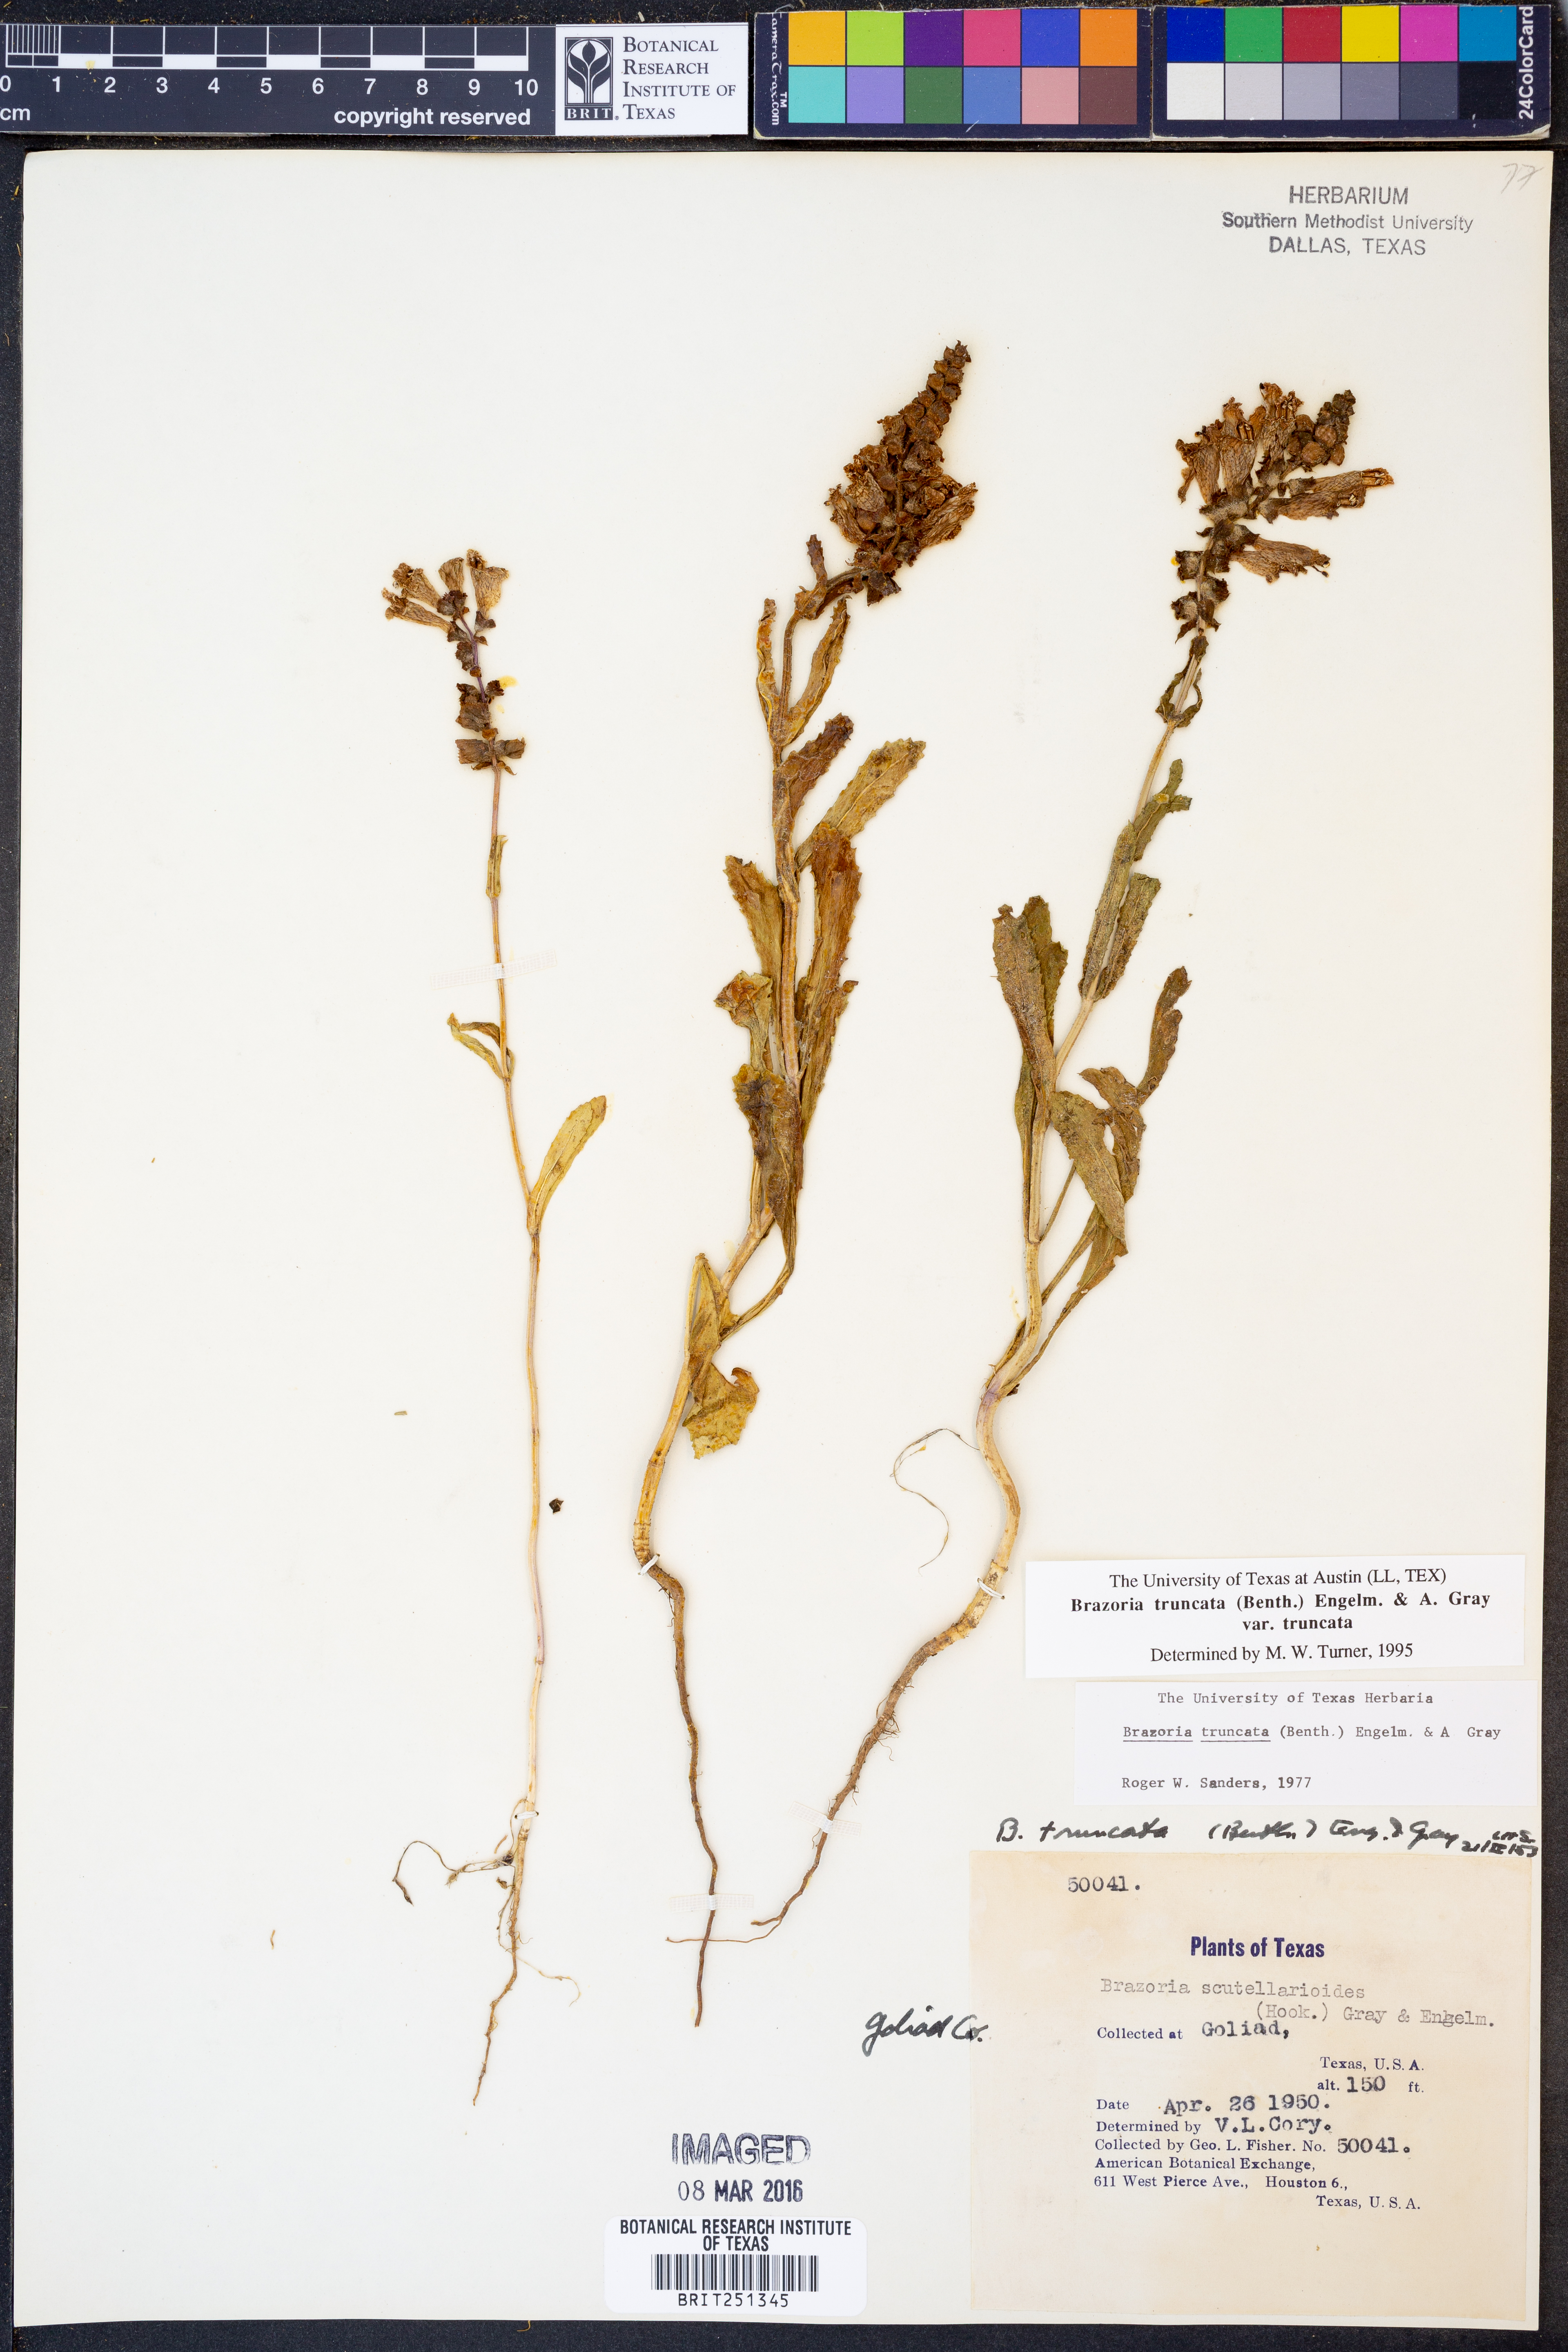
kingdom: Plantae
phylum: Tracheophyta
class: Magnoliopsida
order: Lamiales
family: Lamiaceae
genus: Brazoria
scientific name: Brazoria truncata
